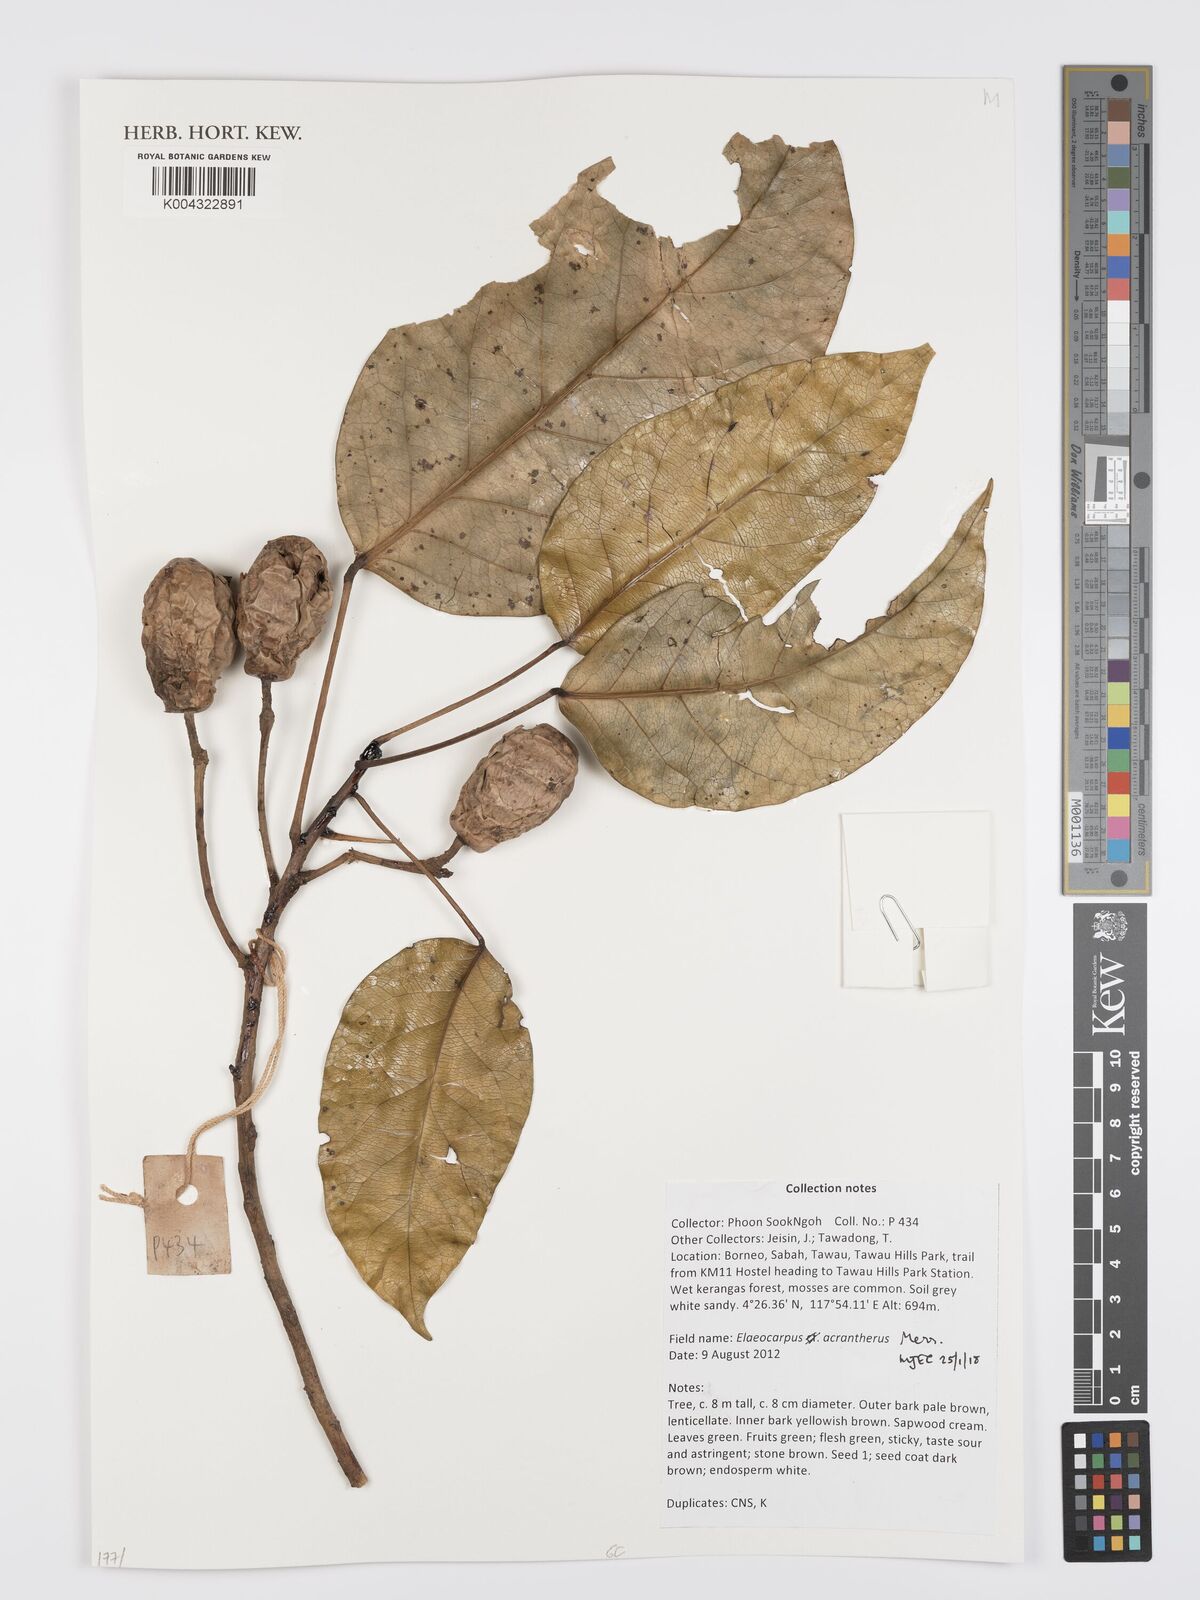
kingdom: Plantae
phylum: Tracheophyta
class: Magnoliopsida
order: Oxalidales
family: Elaeocarpaceae
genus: Elaeocarpus
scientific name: Elaeocarpus acrantherus
